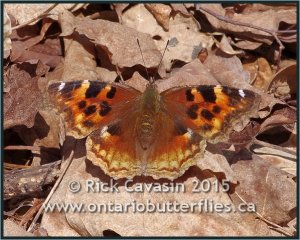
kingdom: Animalia
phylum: Arthropoda
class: Insecta
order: Lepidoptera
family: Nymphalidae
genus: Polygonia
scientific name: Polygonia vaualbum
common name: Compton Tortoiseshell
